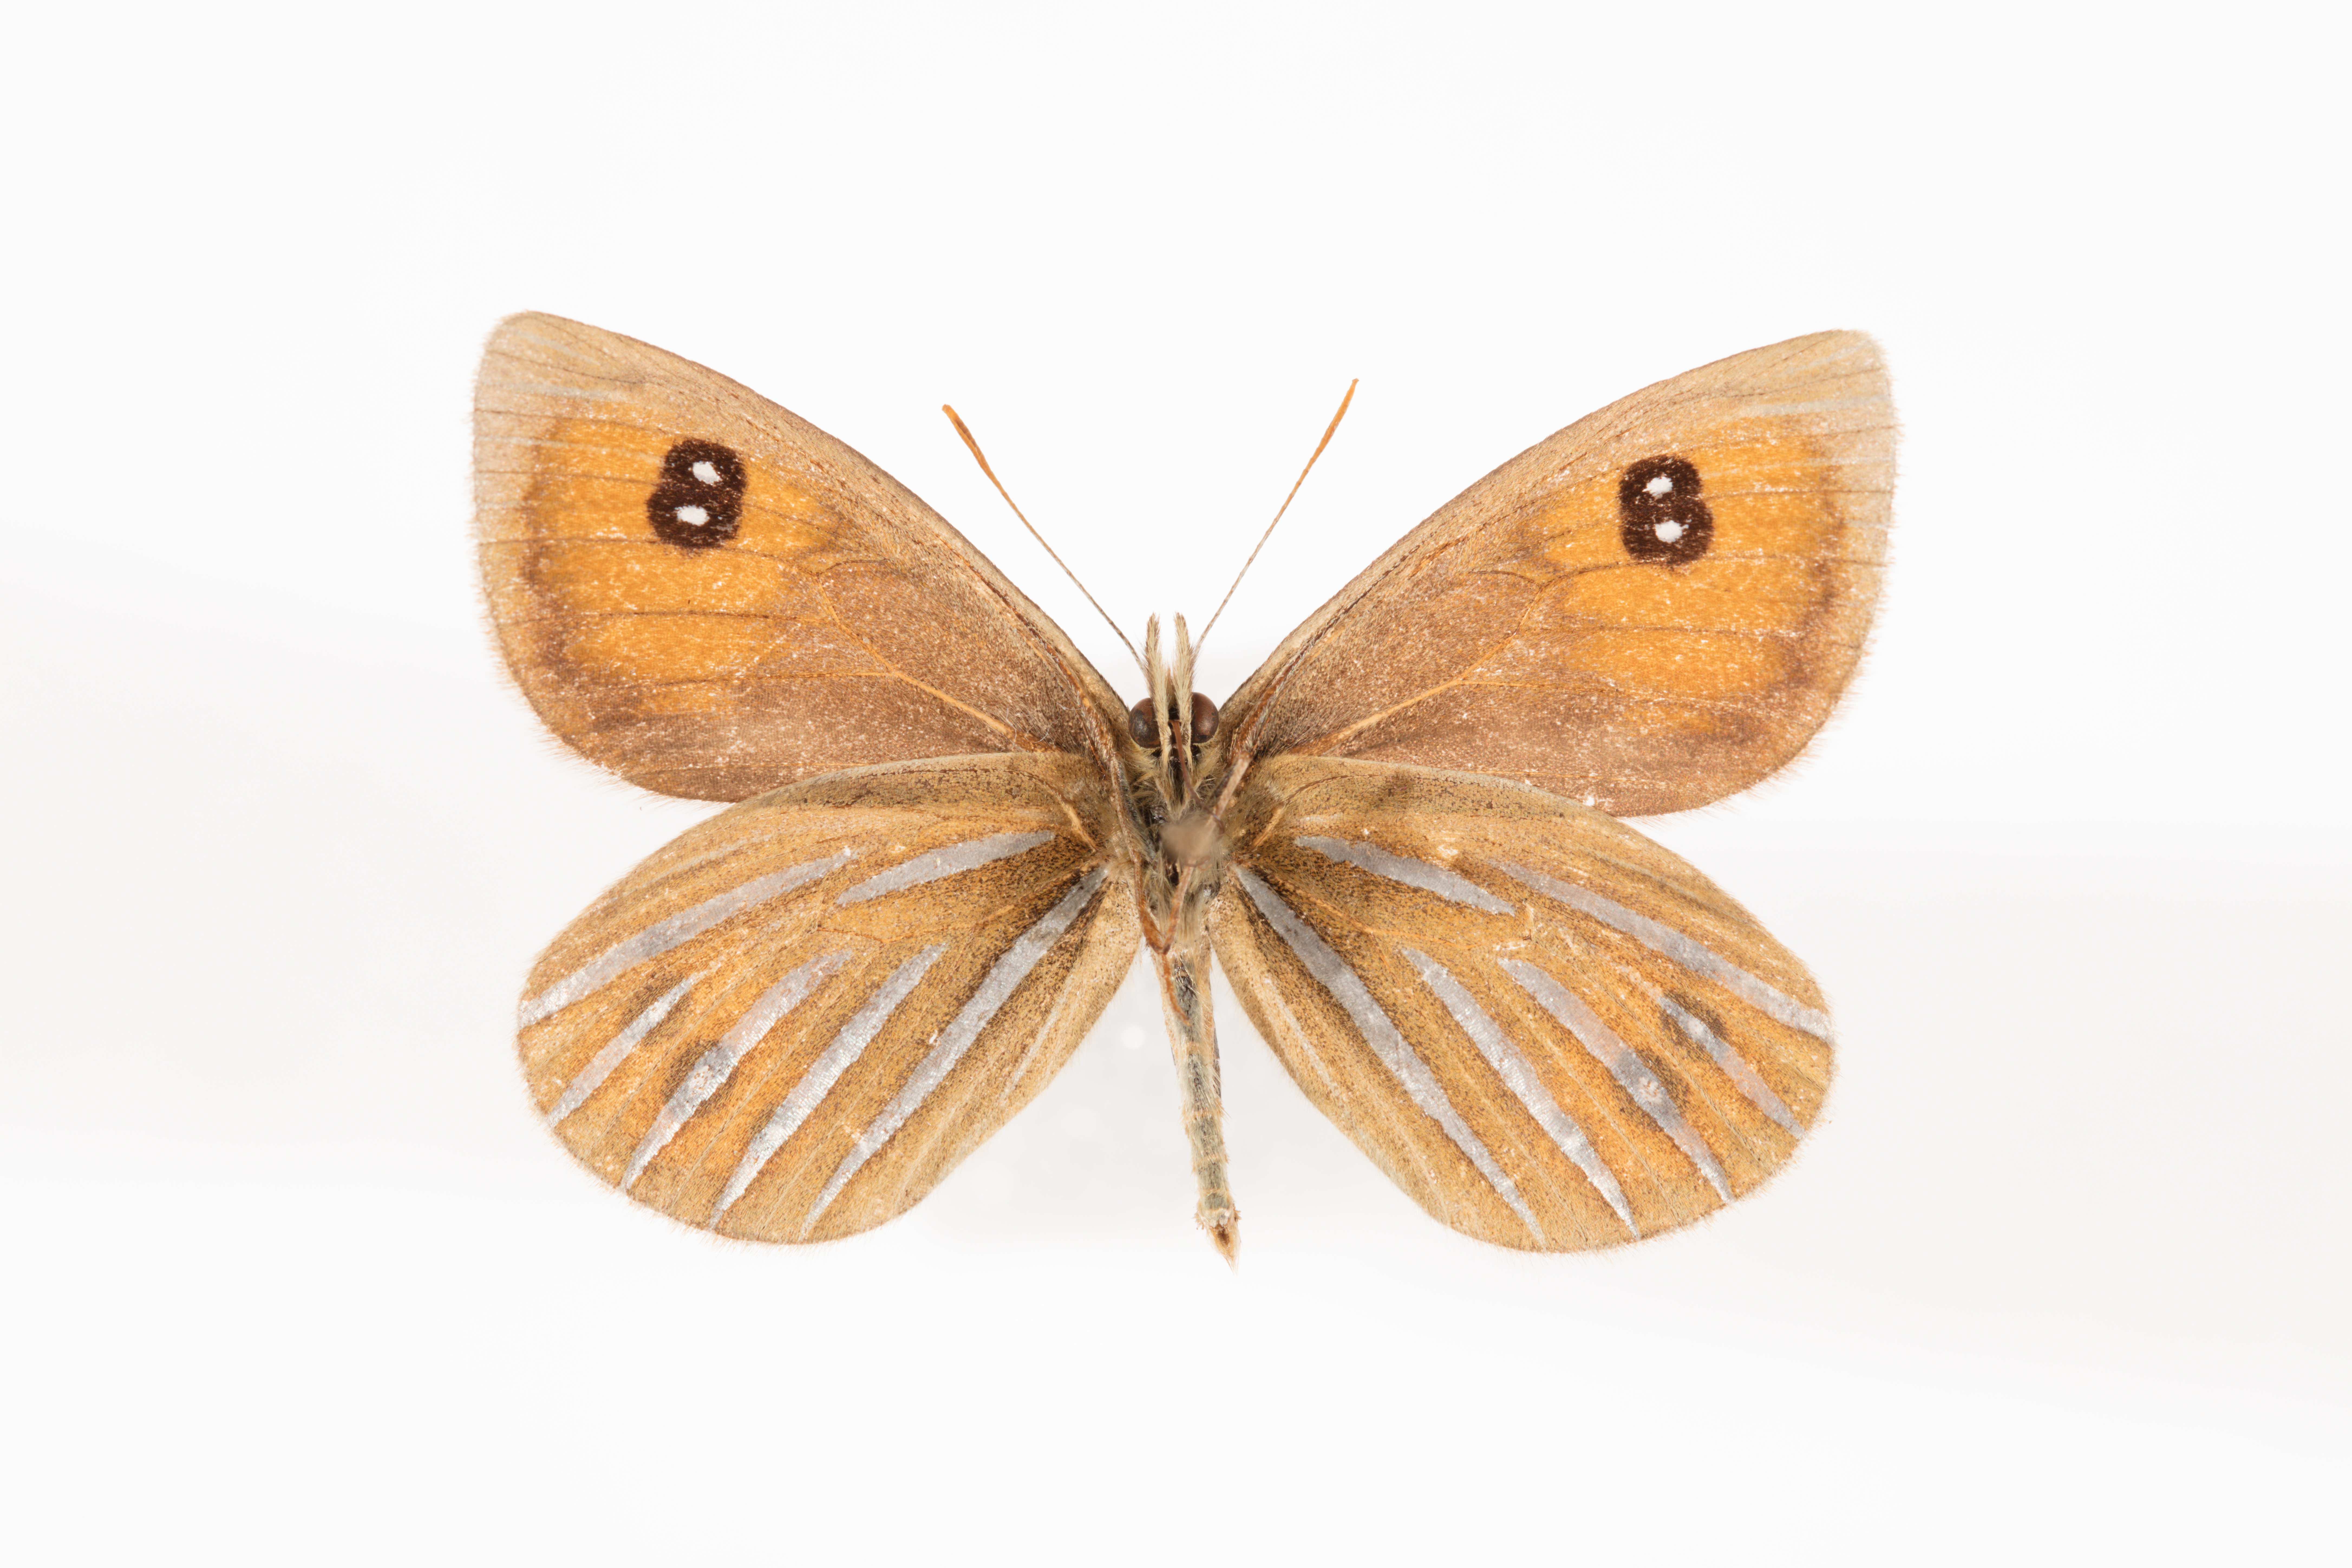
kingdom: Animalia
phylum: Arthropoda
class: Insecta
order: Lepidoptera
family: Nymphalidae
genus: Argyrophenga
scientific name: Argyrophenga antipodum
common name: Common tussock butterfly
